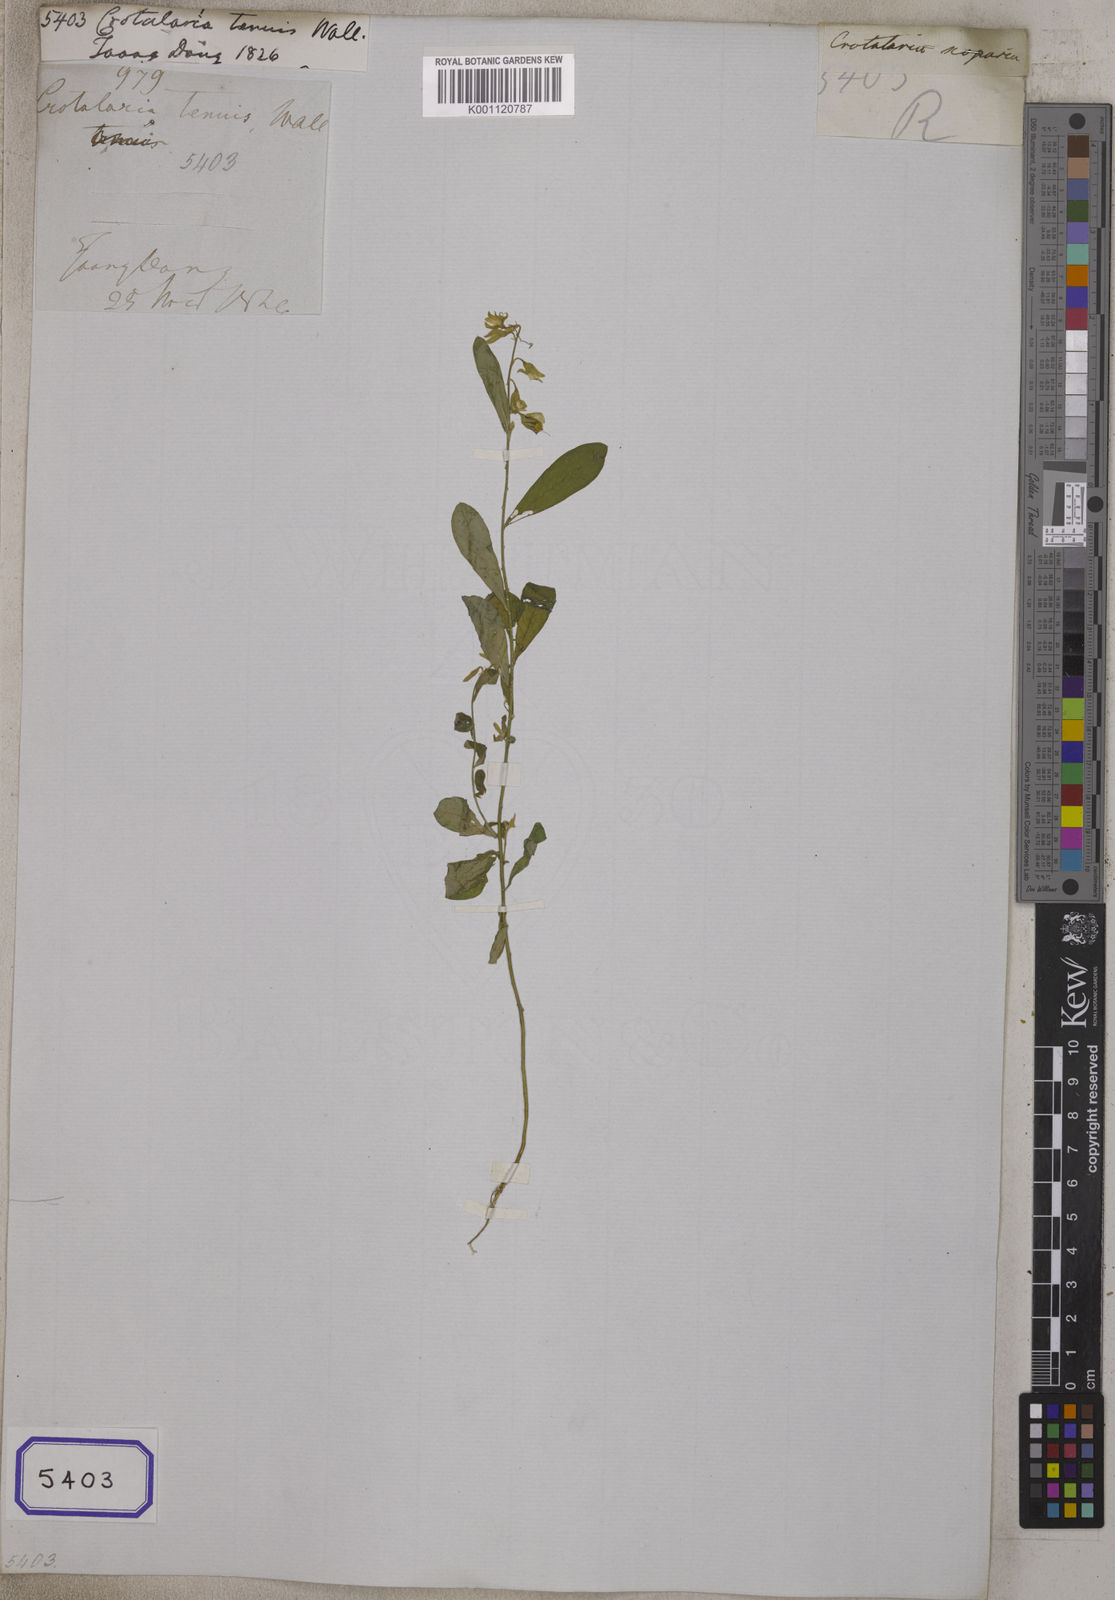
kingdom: Plantae
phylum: Tracheophyta
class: Magnoliopsida
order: Fabales
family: Fabaceae
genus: Crotalaria
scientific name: Crotalaria
